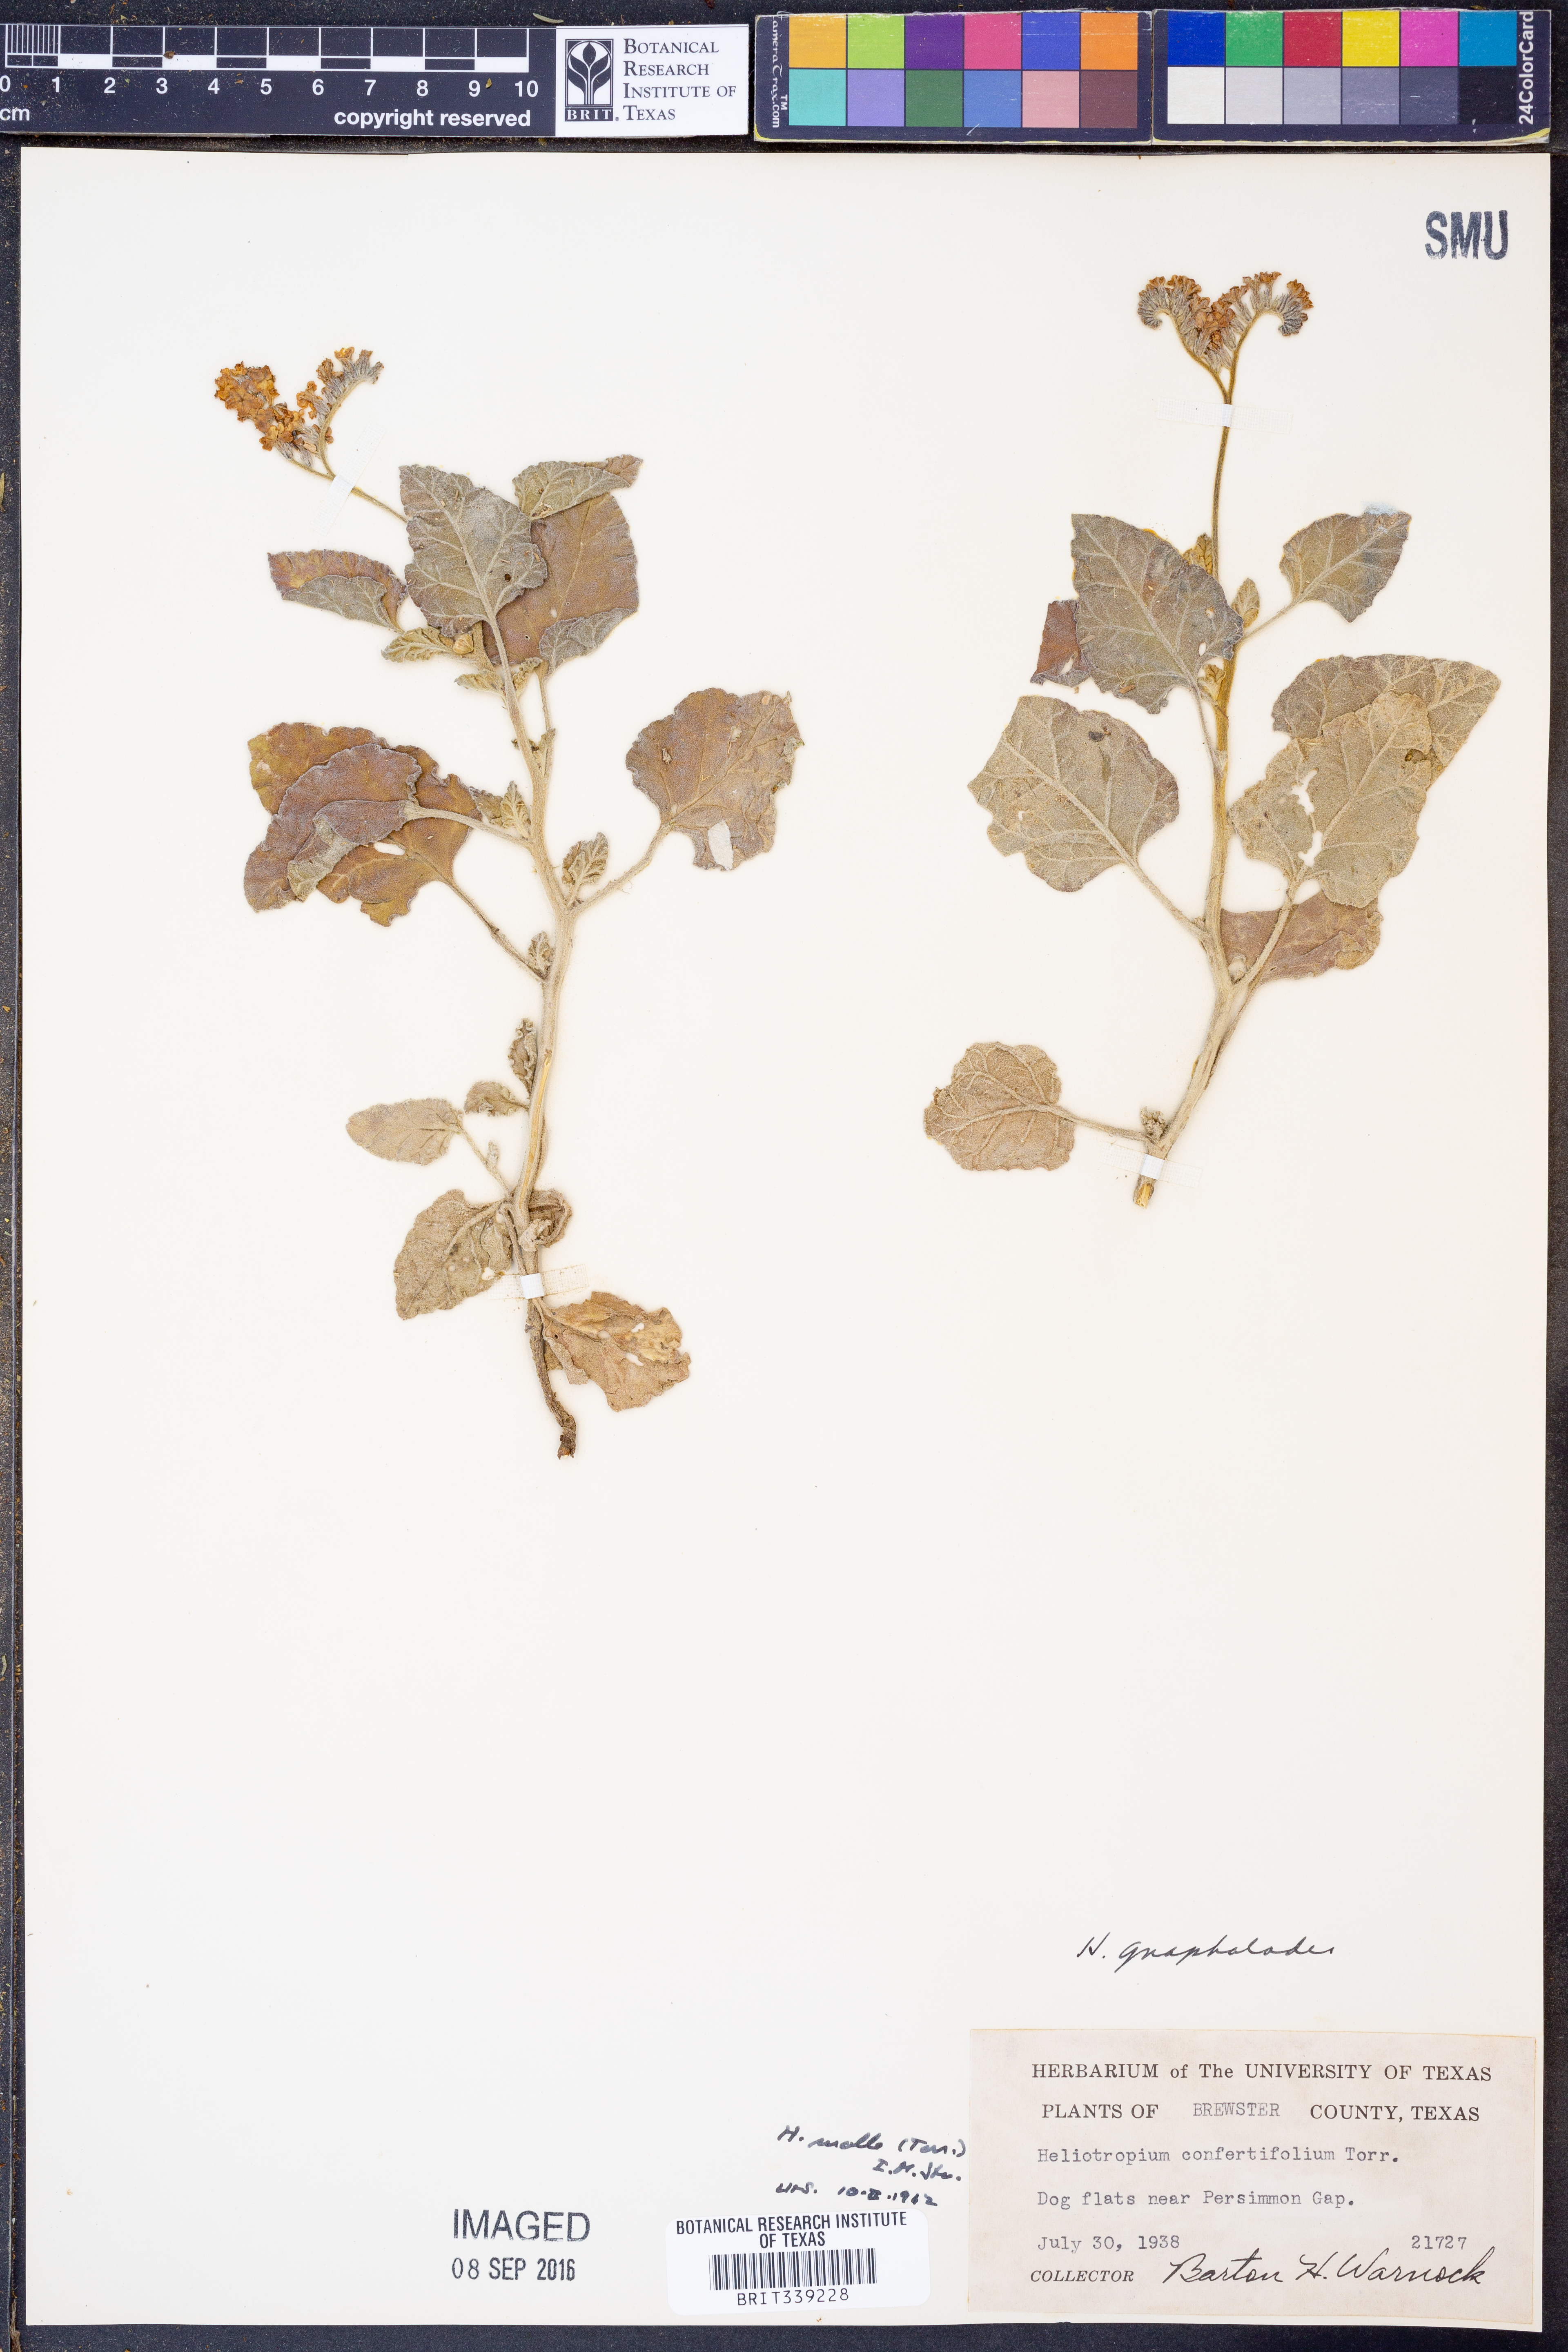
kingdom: Plantae
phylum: Tracheophyta
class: Magnoliopsida
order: Boraginales
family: Heliotropiaceae
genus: Heliotropium
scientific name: Heliotropium molle
